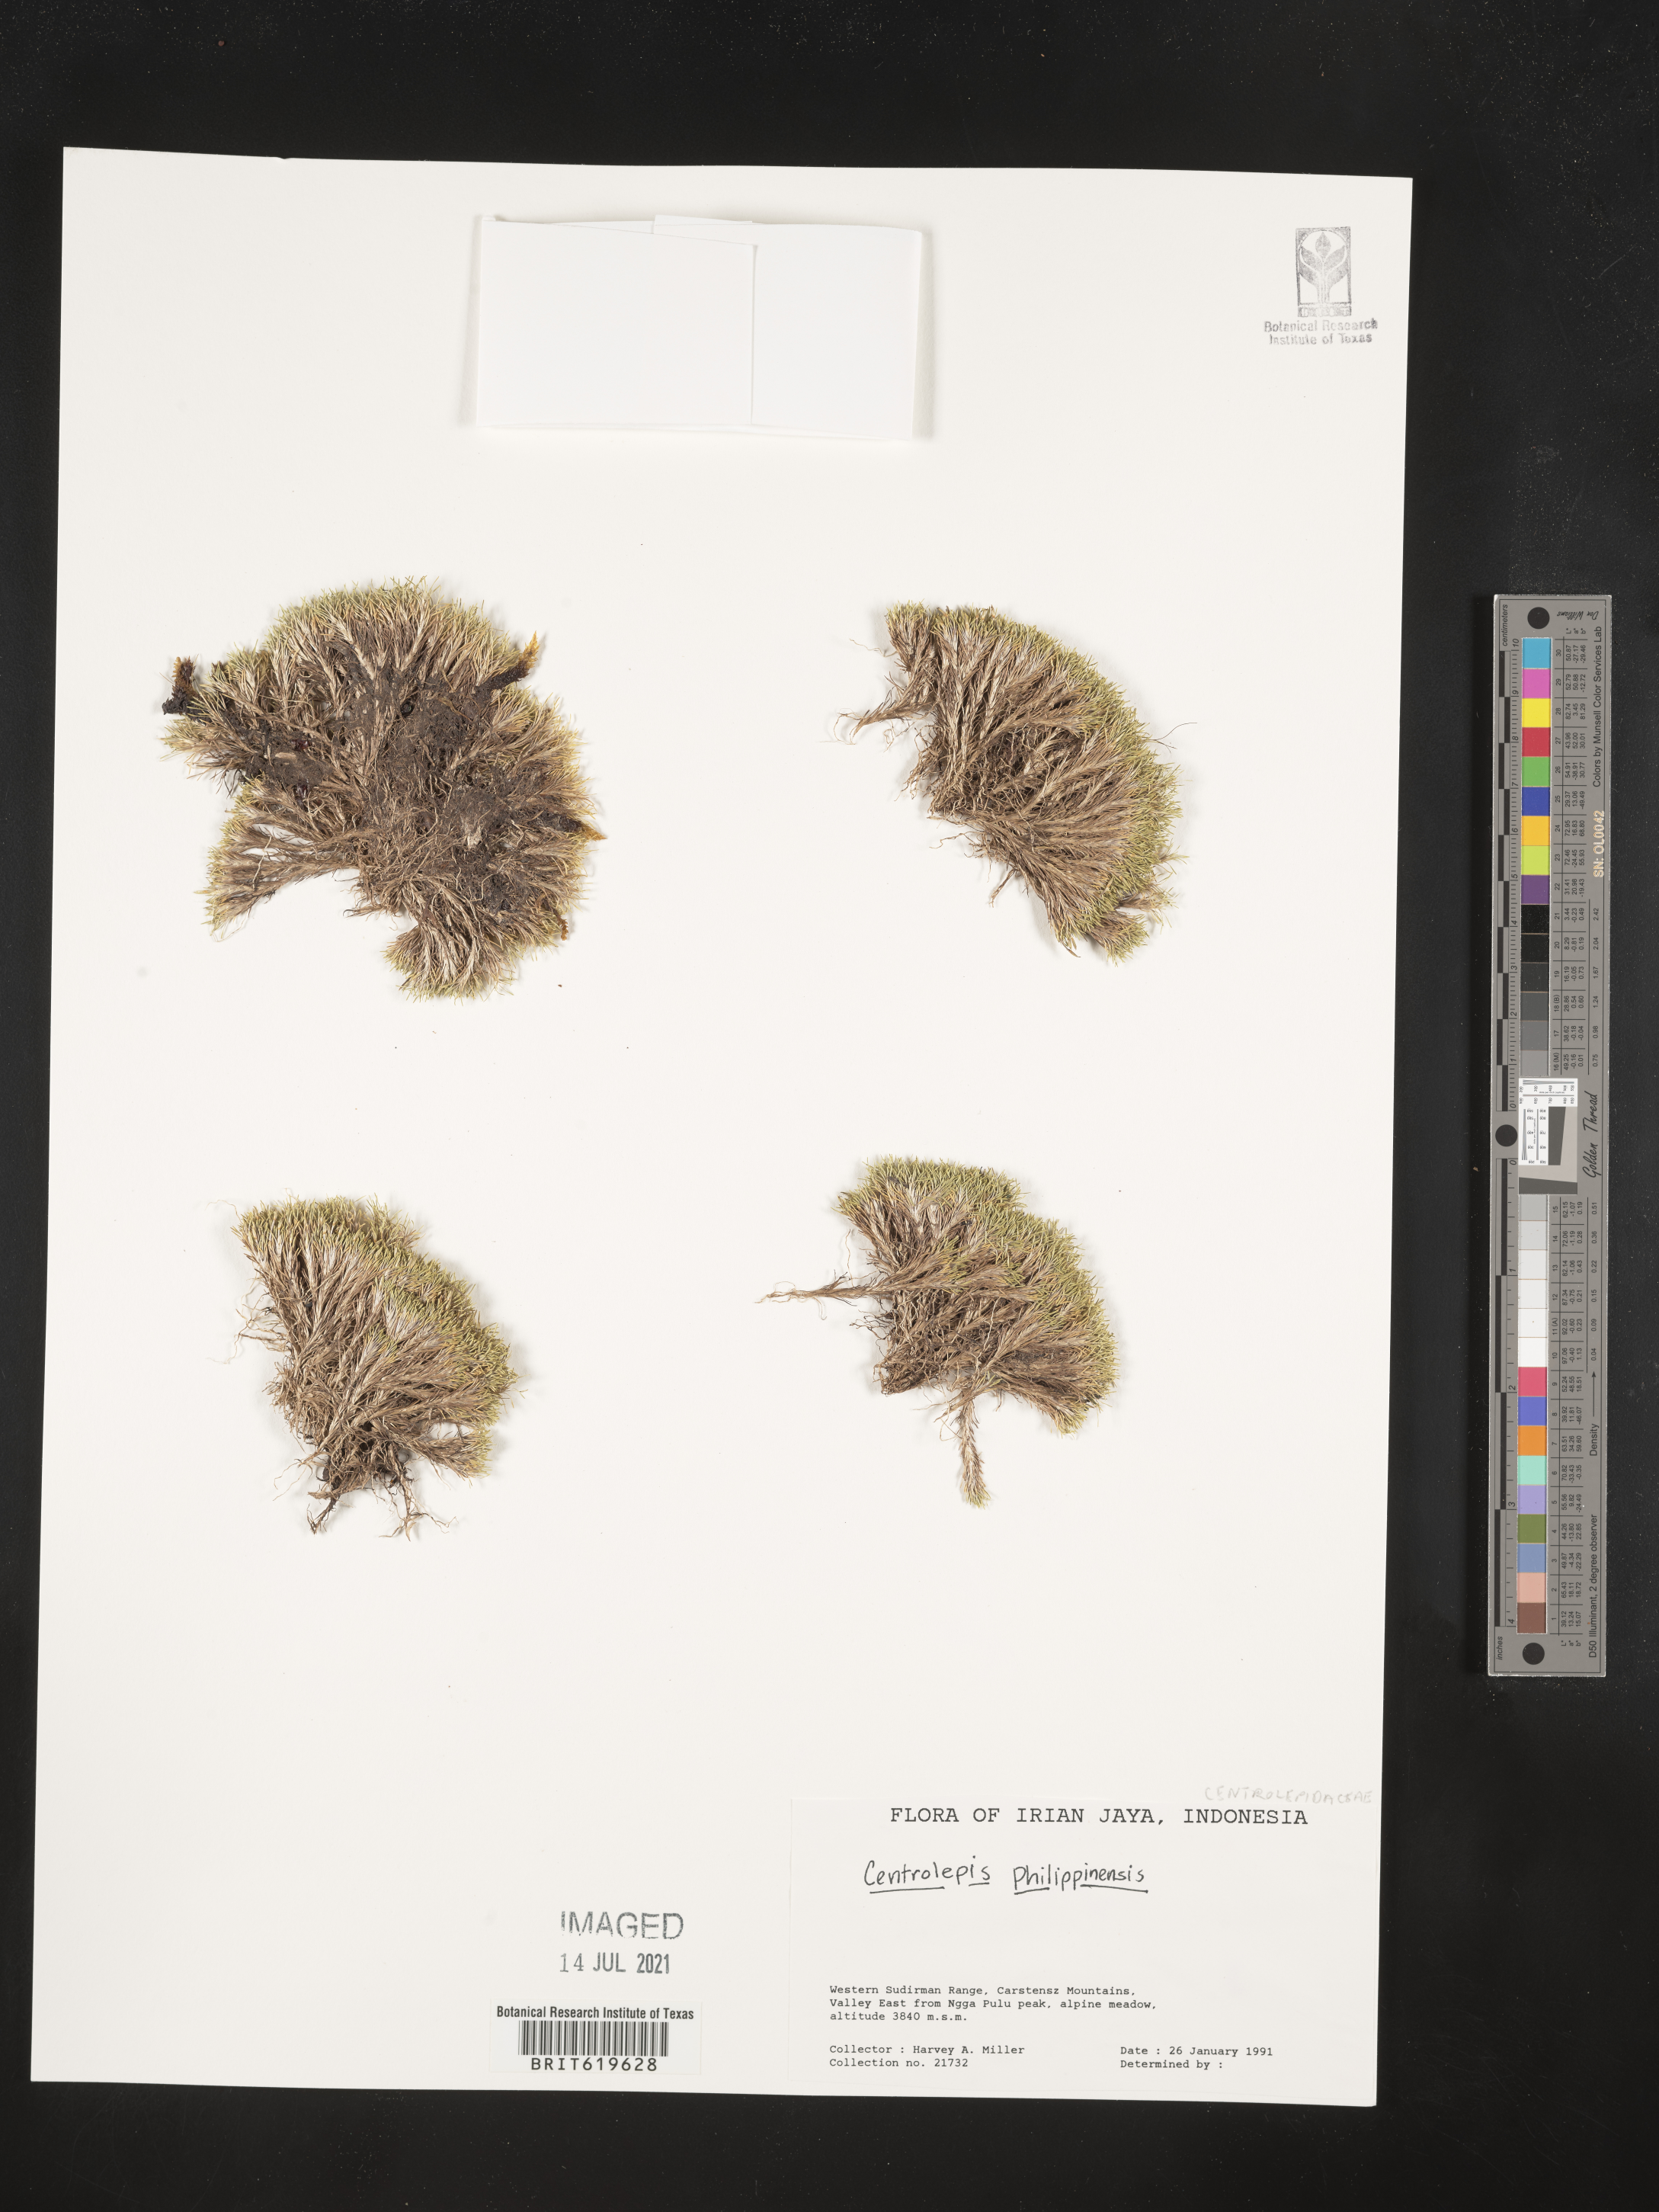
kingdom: Plantae
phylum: Tracheophyta
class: Liliopsida
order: Poales
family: Restionaceae
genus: Centrolepis
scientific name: Centrolepis philippinensis
